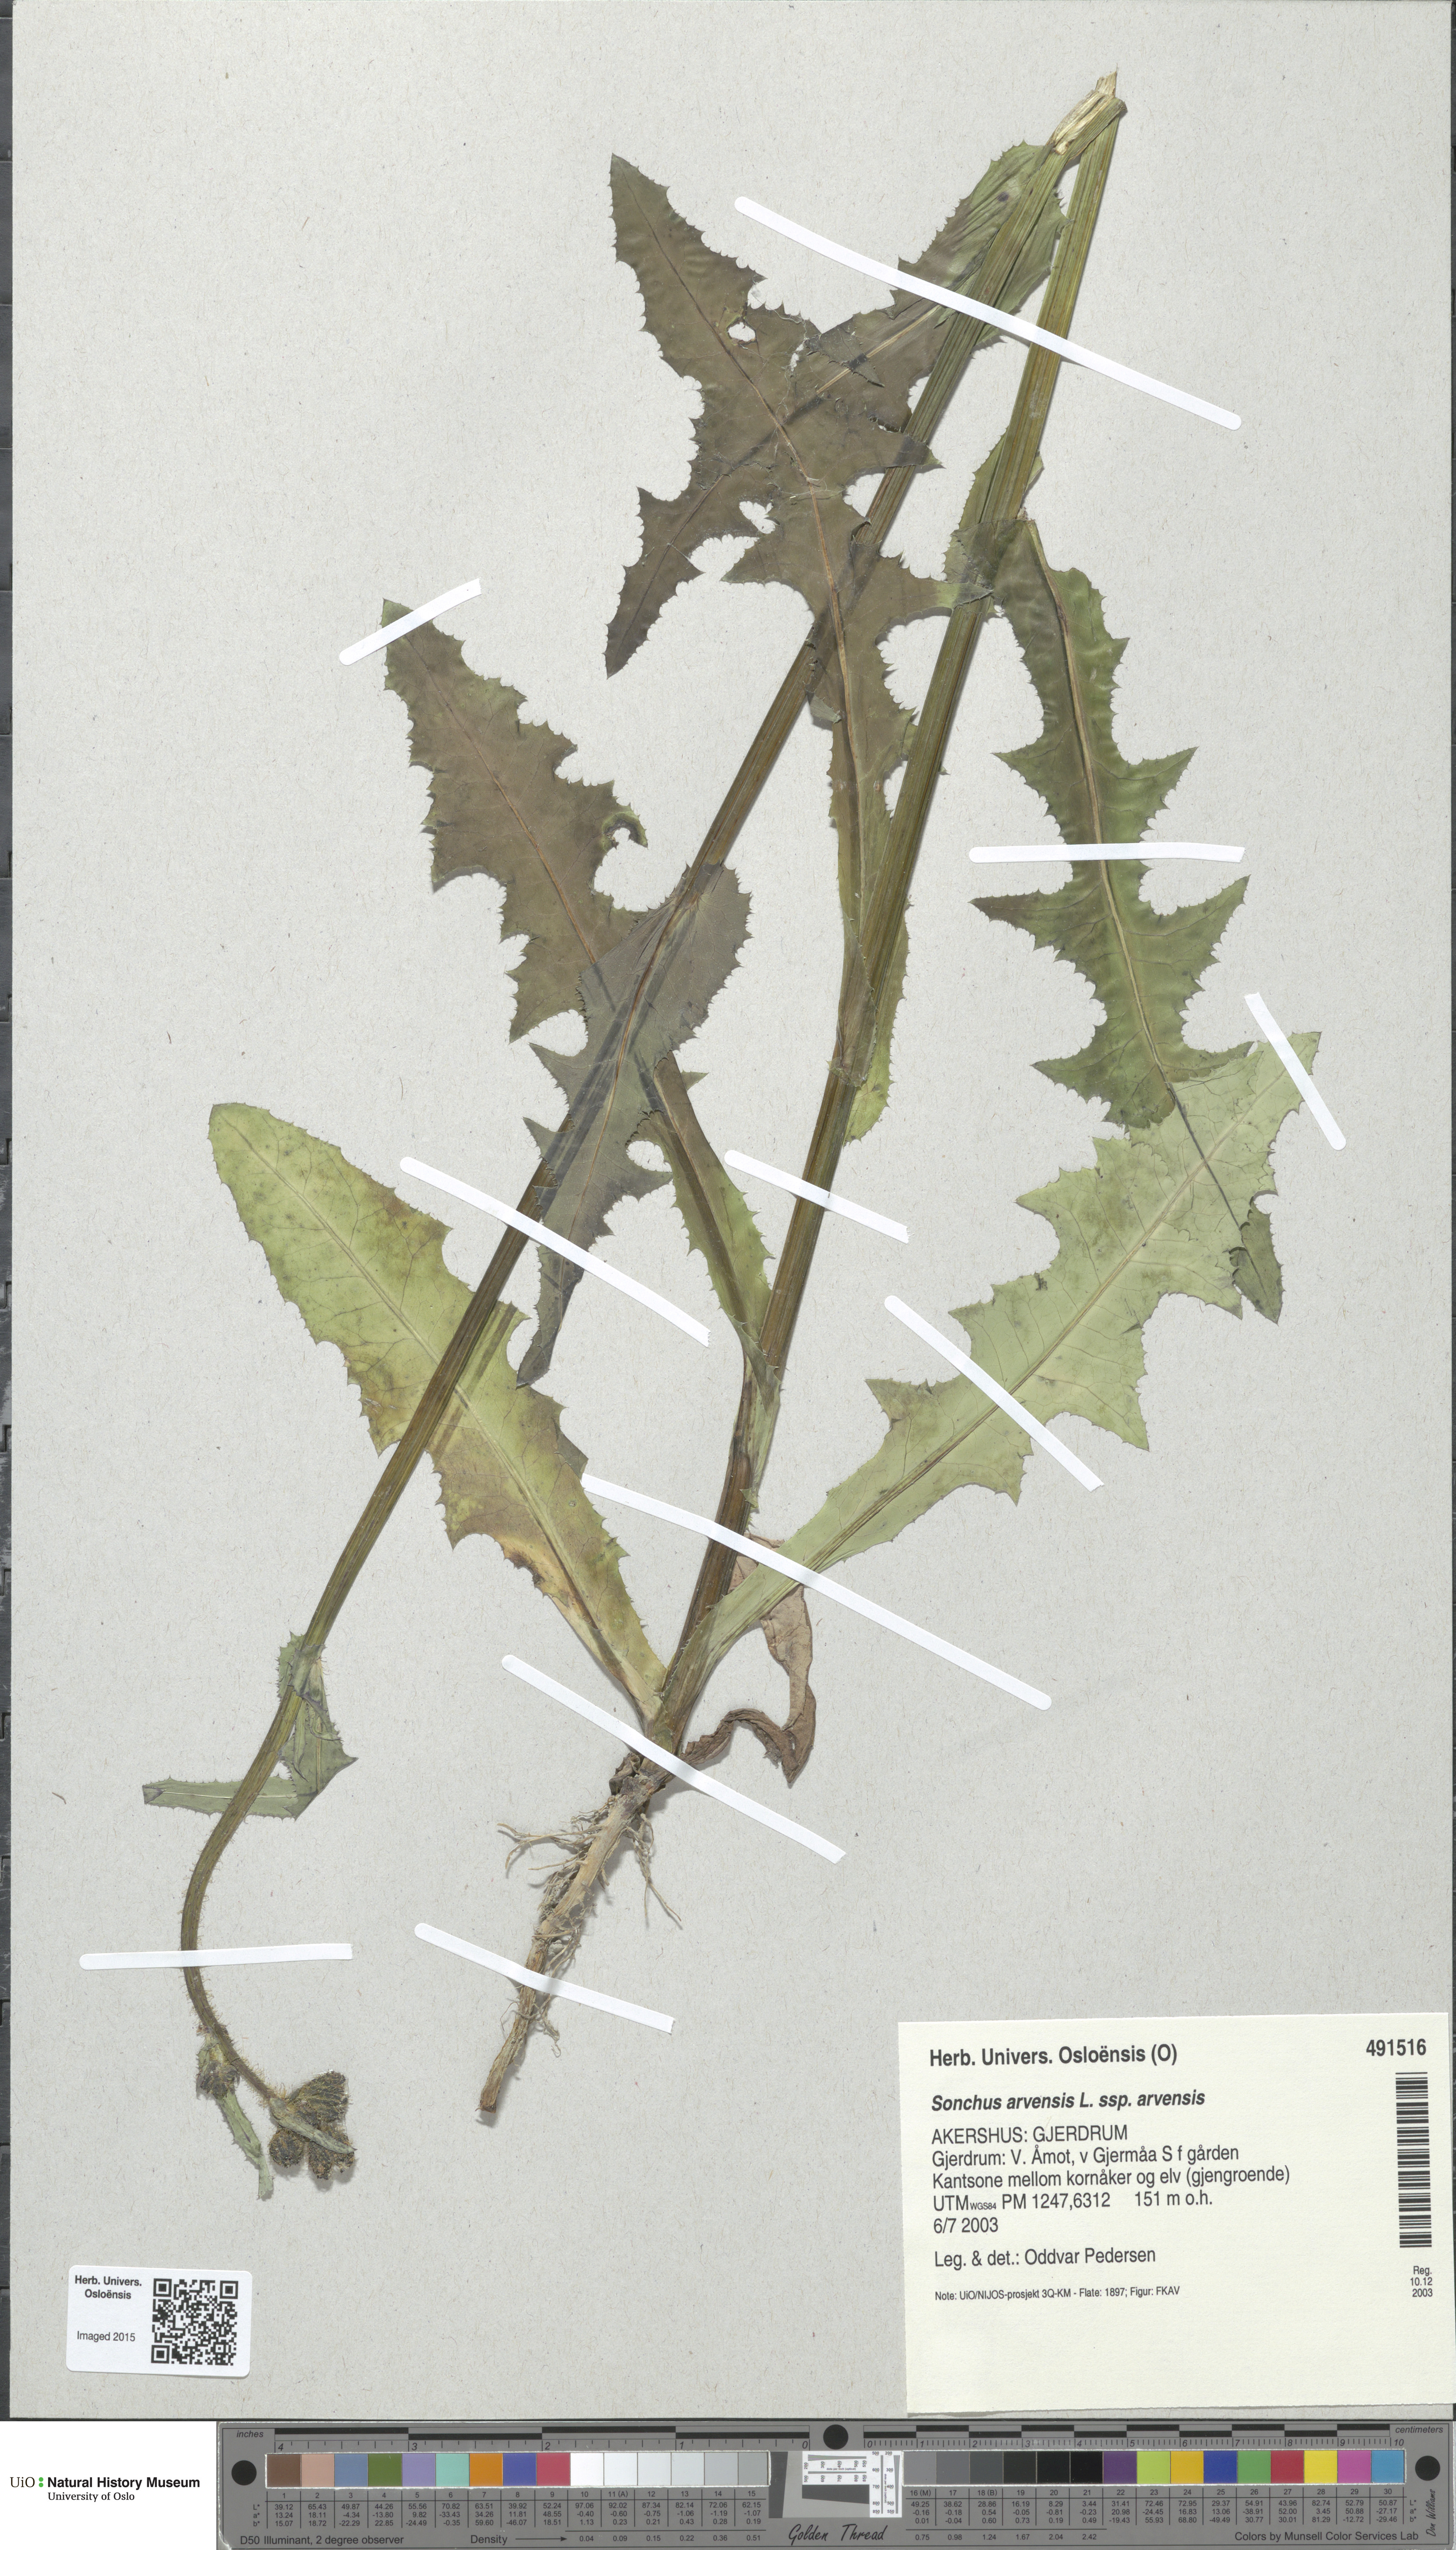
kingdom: Plantae
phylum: Tracheophyta
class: Magnoliopsida
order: Asterales
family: Asteraceae
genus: Sonchus
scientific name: Sonchus arvensis
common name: Perennial sow-thistle
